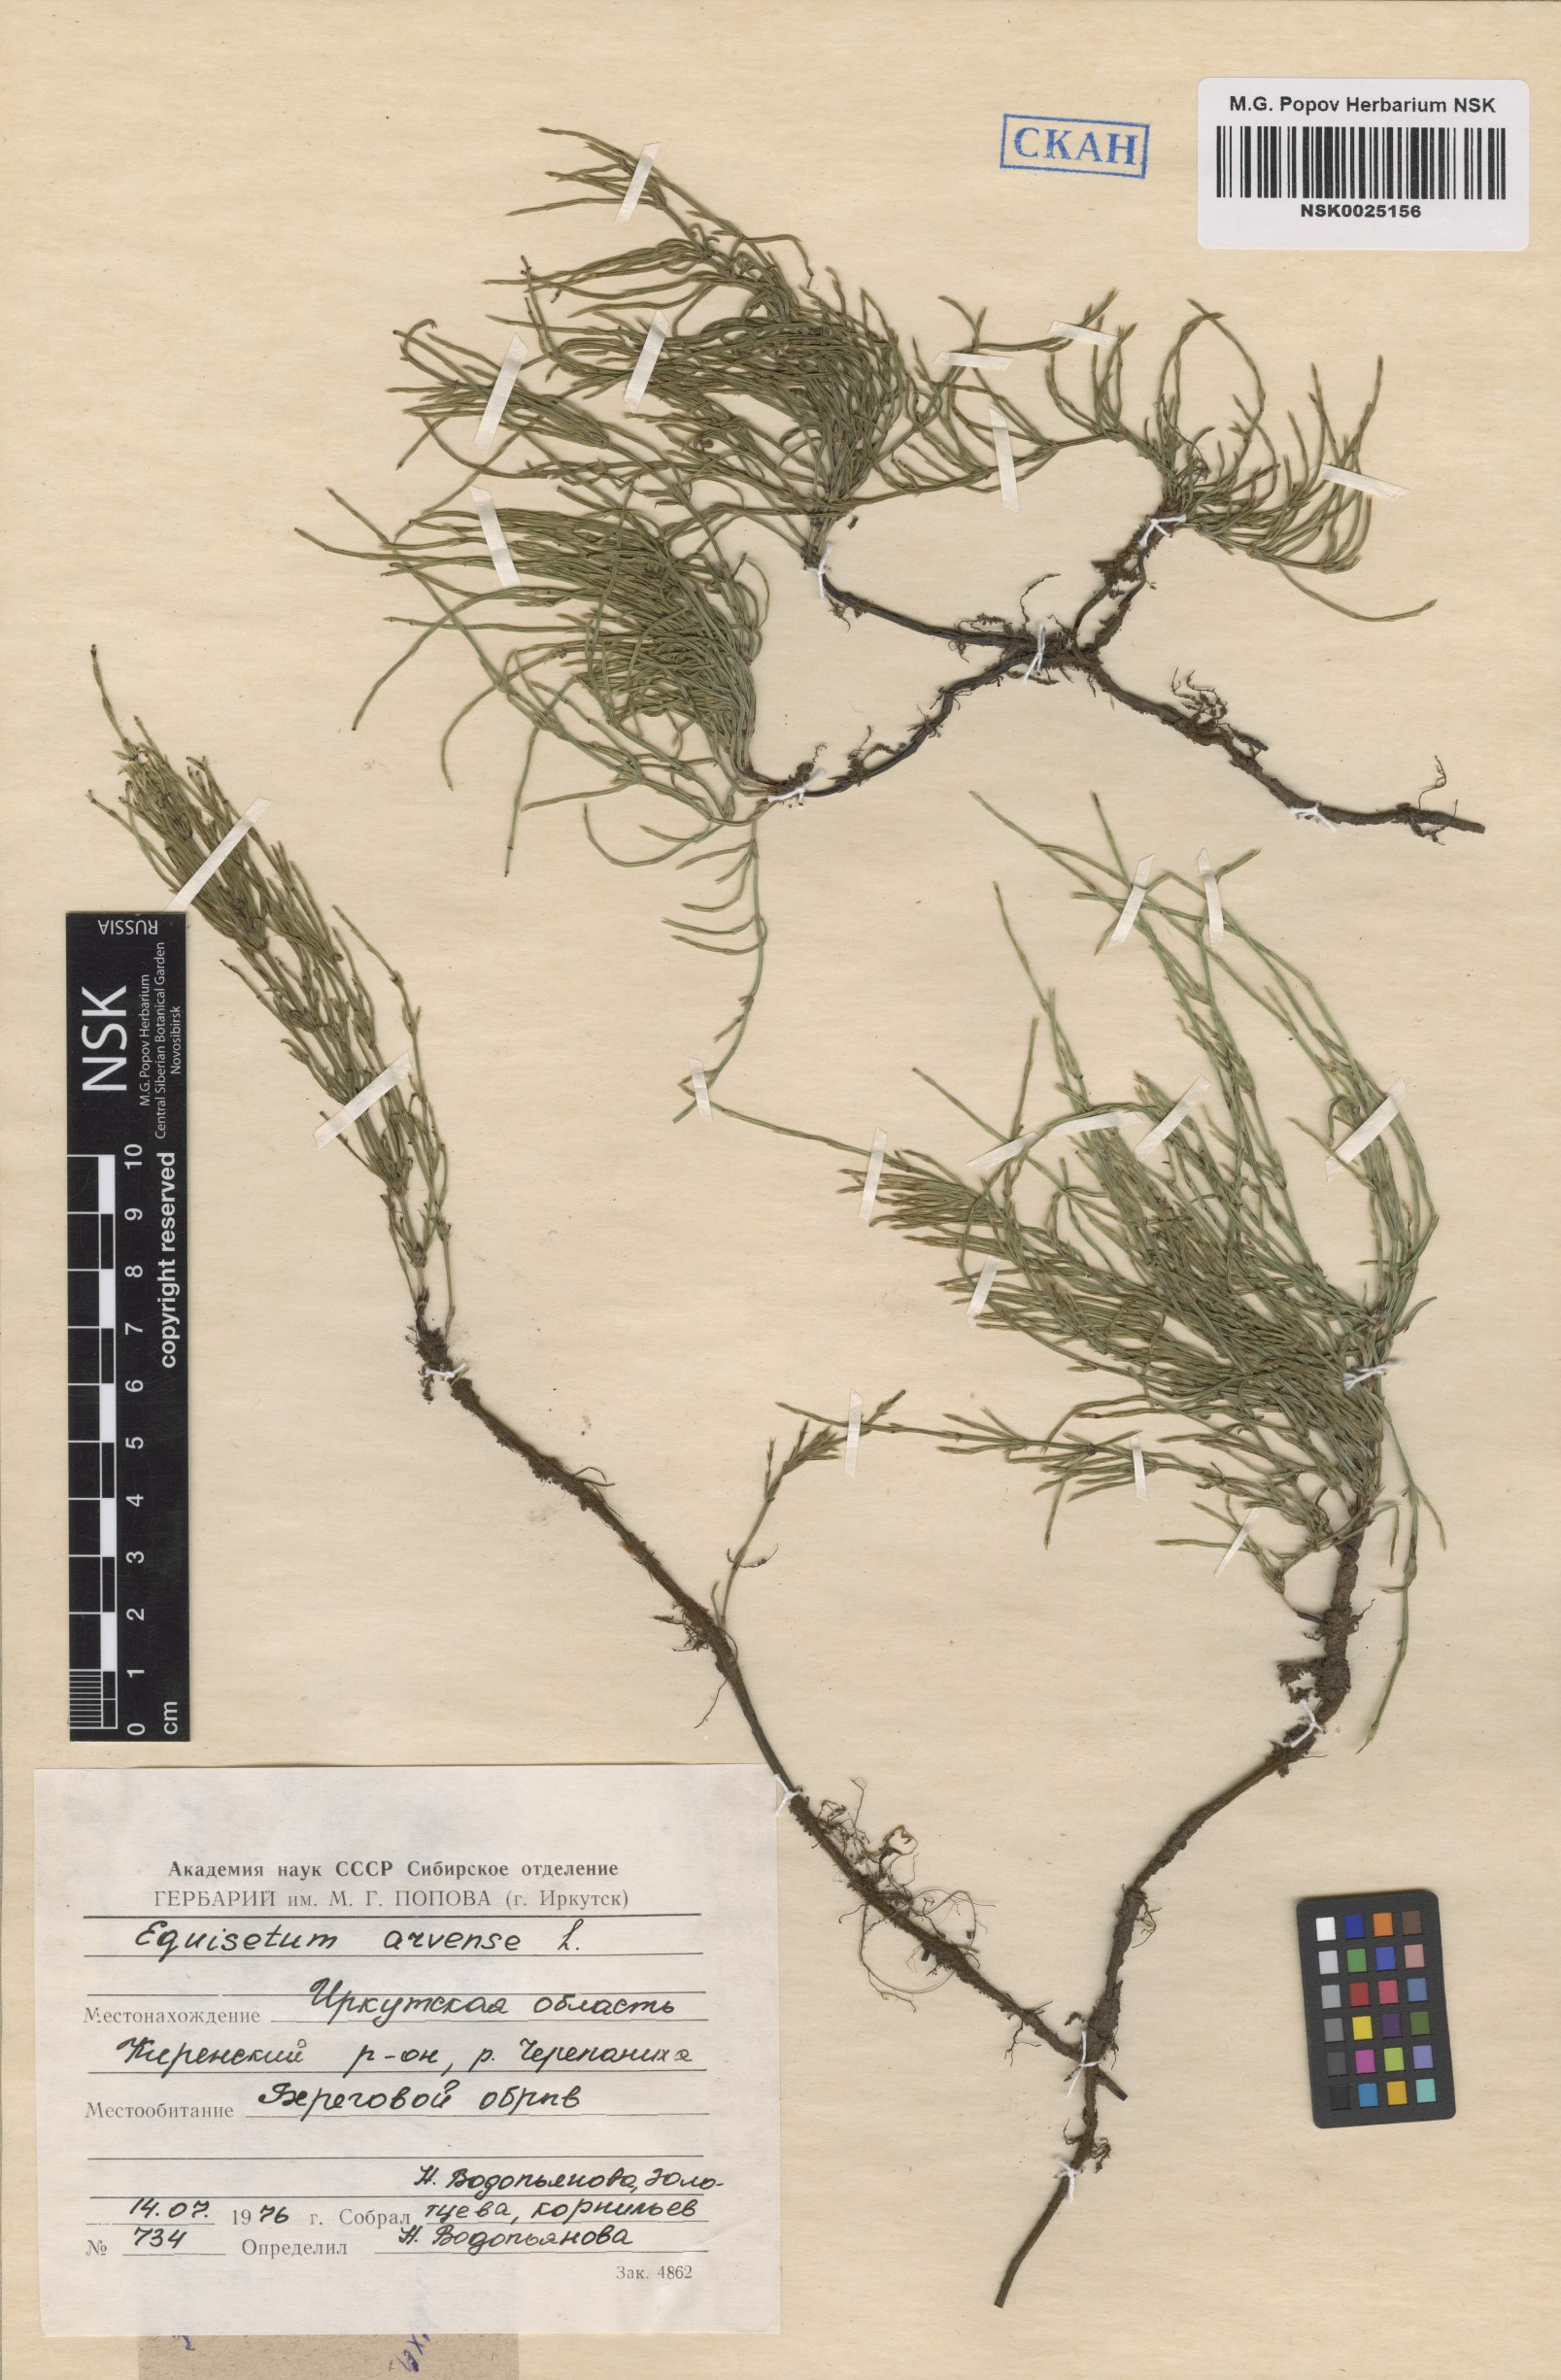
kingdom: Plantae
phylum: Tracheophyta
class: Polypodiopsida
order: Equisetales
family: Equisetaceae
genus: Equisetum
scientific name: Equisetum arvense
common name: Field horsetail
